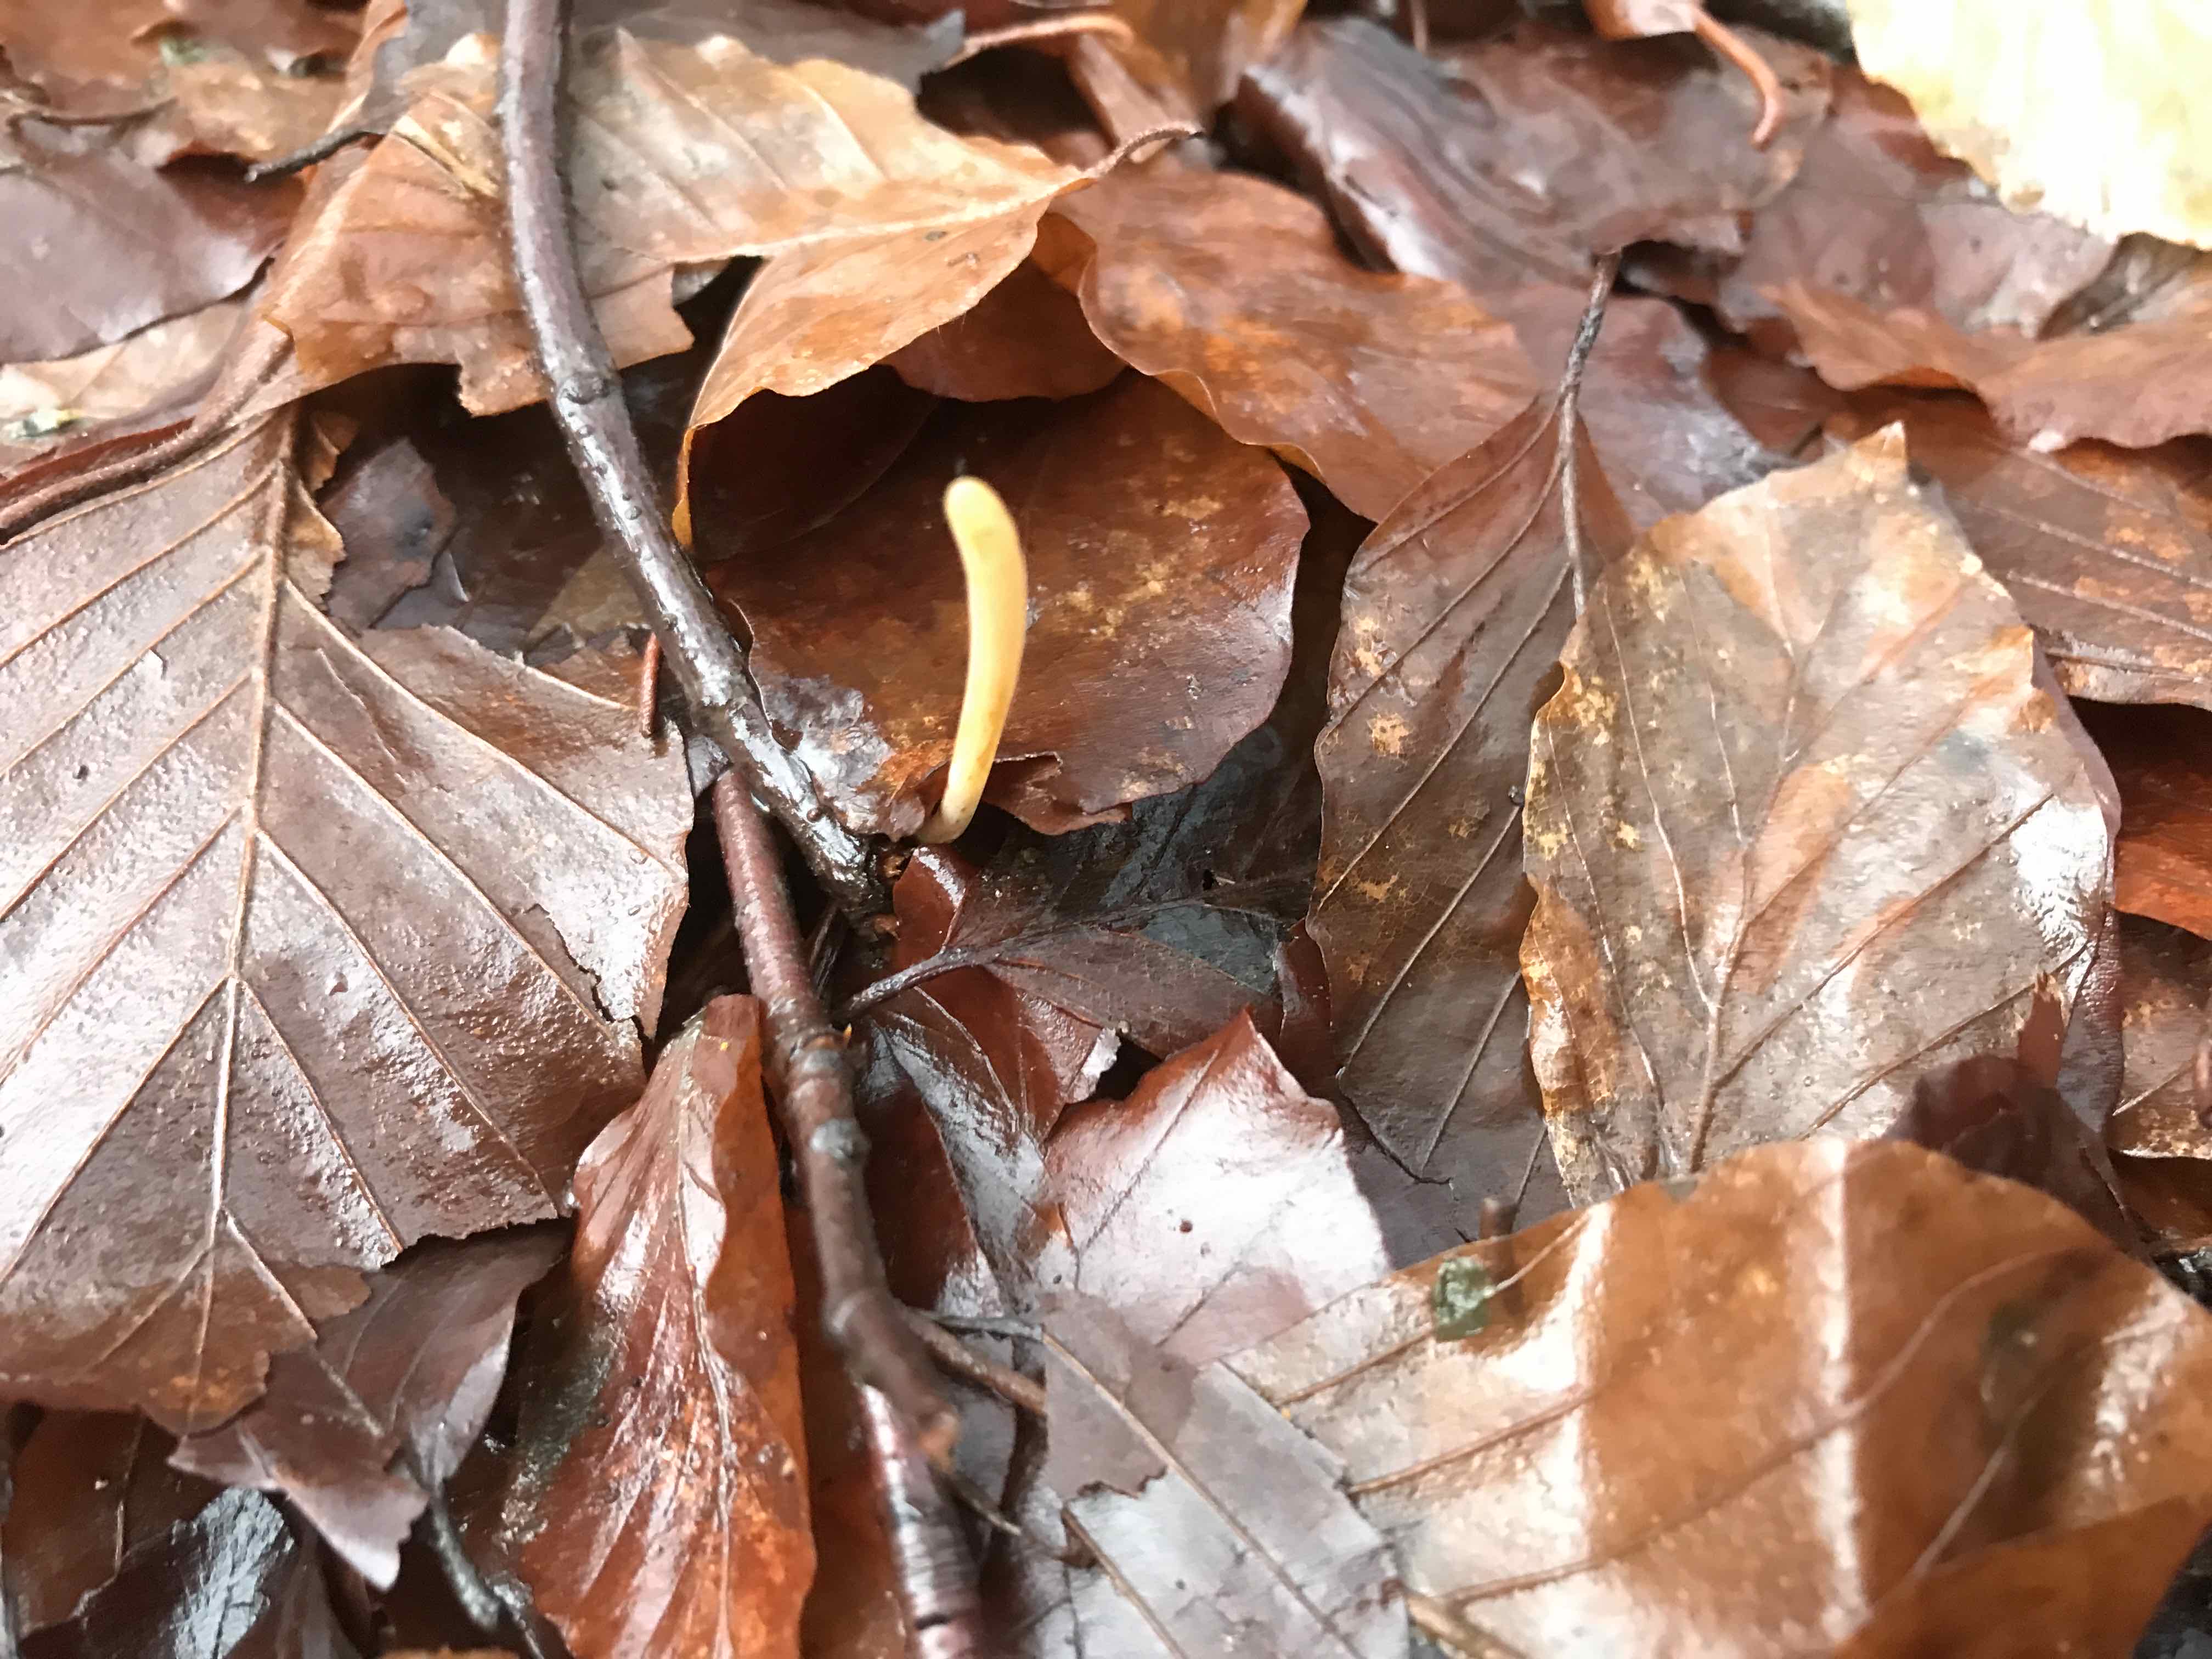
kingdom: Fungi
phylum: Basidiomycota
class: Agaricomycetes
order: Agaricales
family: Typhulaceae
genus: Typhula
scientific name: Typhula fistulosa
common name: pibet rørkølle
